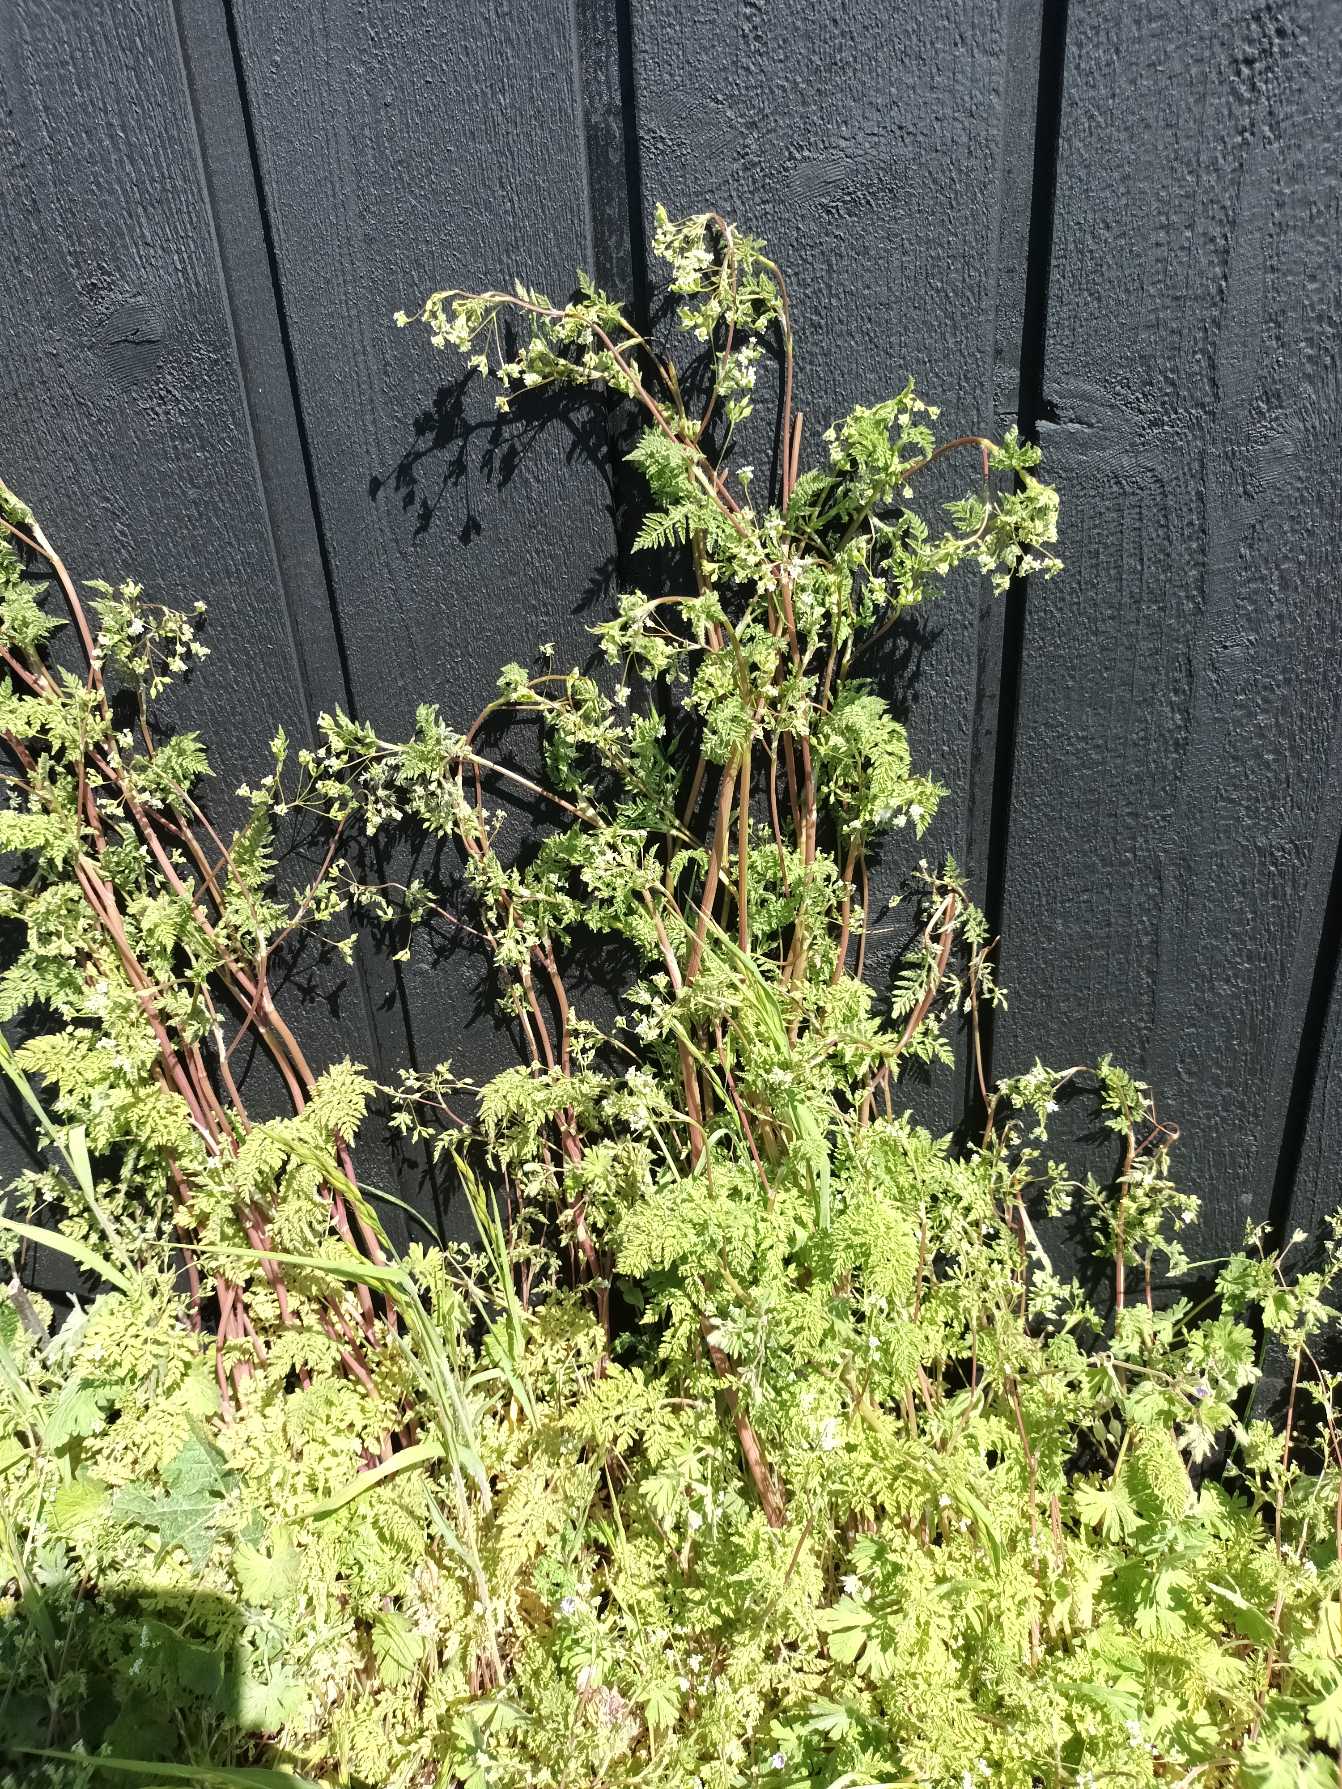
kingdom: Plantae
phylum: Tracheophyta
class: Magnoliopsida
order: Apiales
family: Apiaceae
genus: Anthriscus
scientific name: Anthriscus caucalis
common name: Gærde-kørvel
